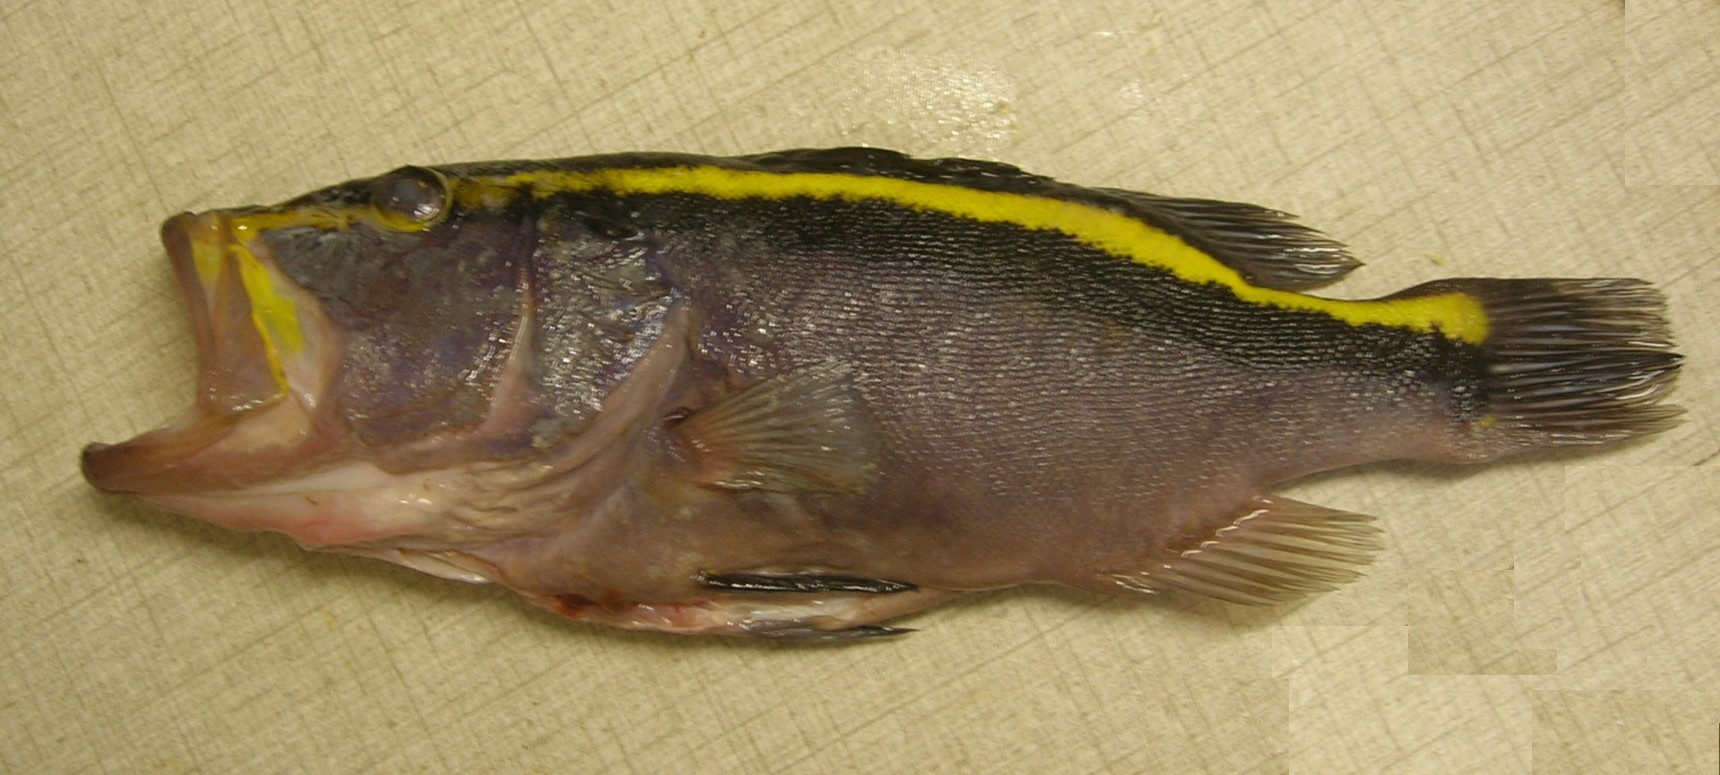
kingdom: Animalia
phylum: Chordata
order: Perciformes
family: Serranidae
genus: Aulacocephalus
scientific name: Aulacocephalus temminckii
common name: Goldribbon soapfish
